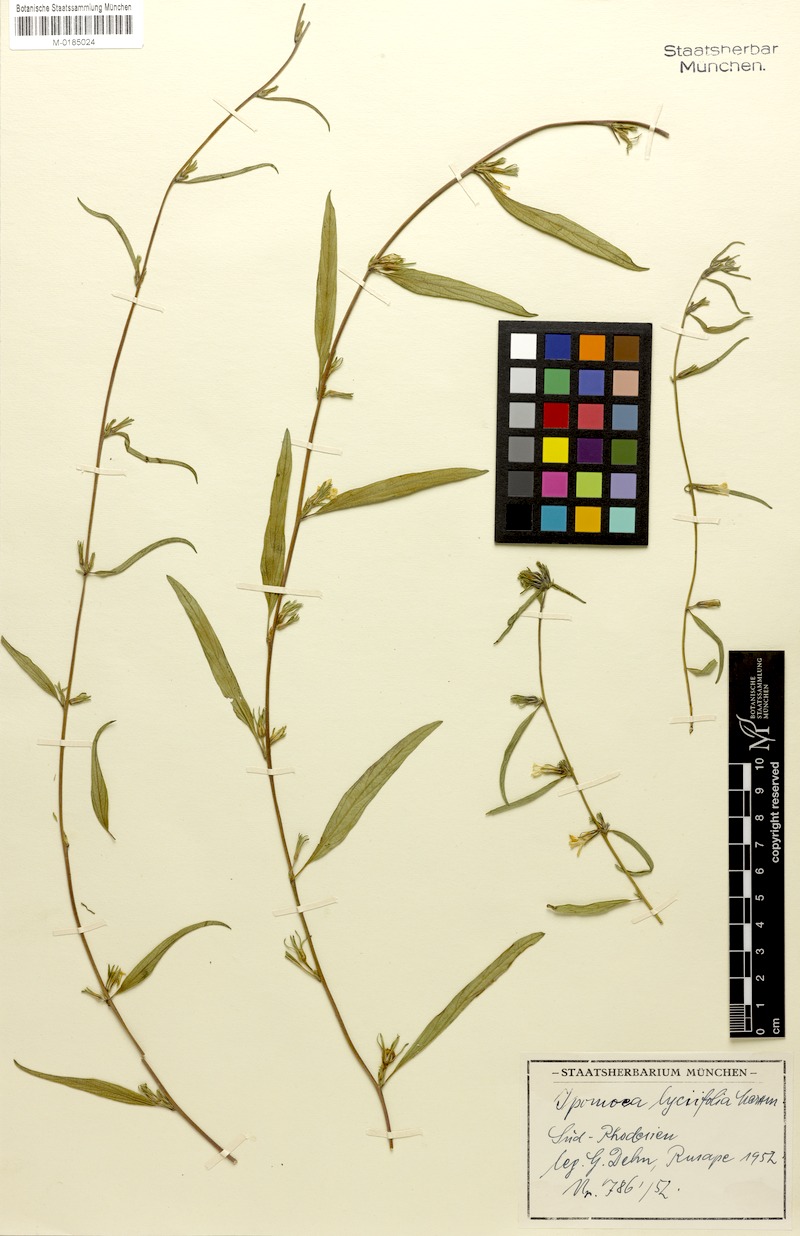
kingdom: Plantae
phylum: Tracheophyta
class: Magnoliopsida
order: Solanales
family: Convolvulaceae
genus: Ipomoea
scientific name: Ipomoea gracilisepala
